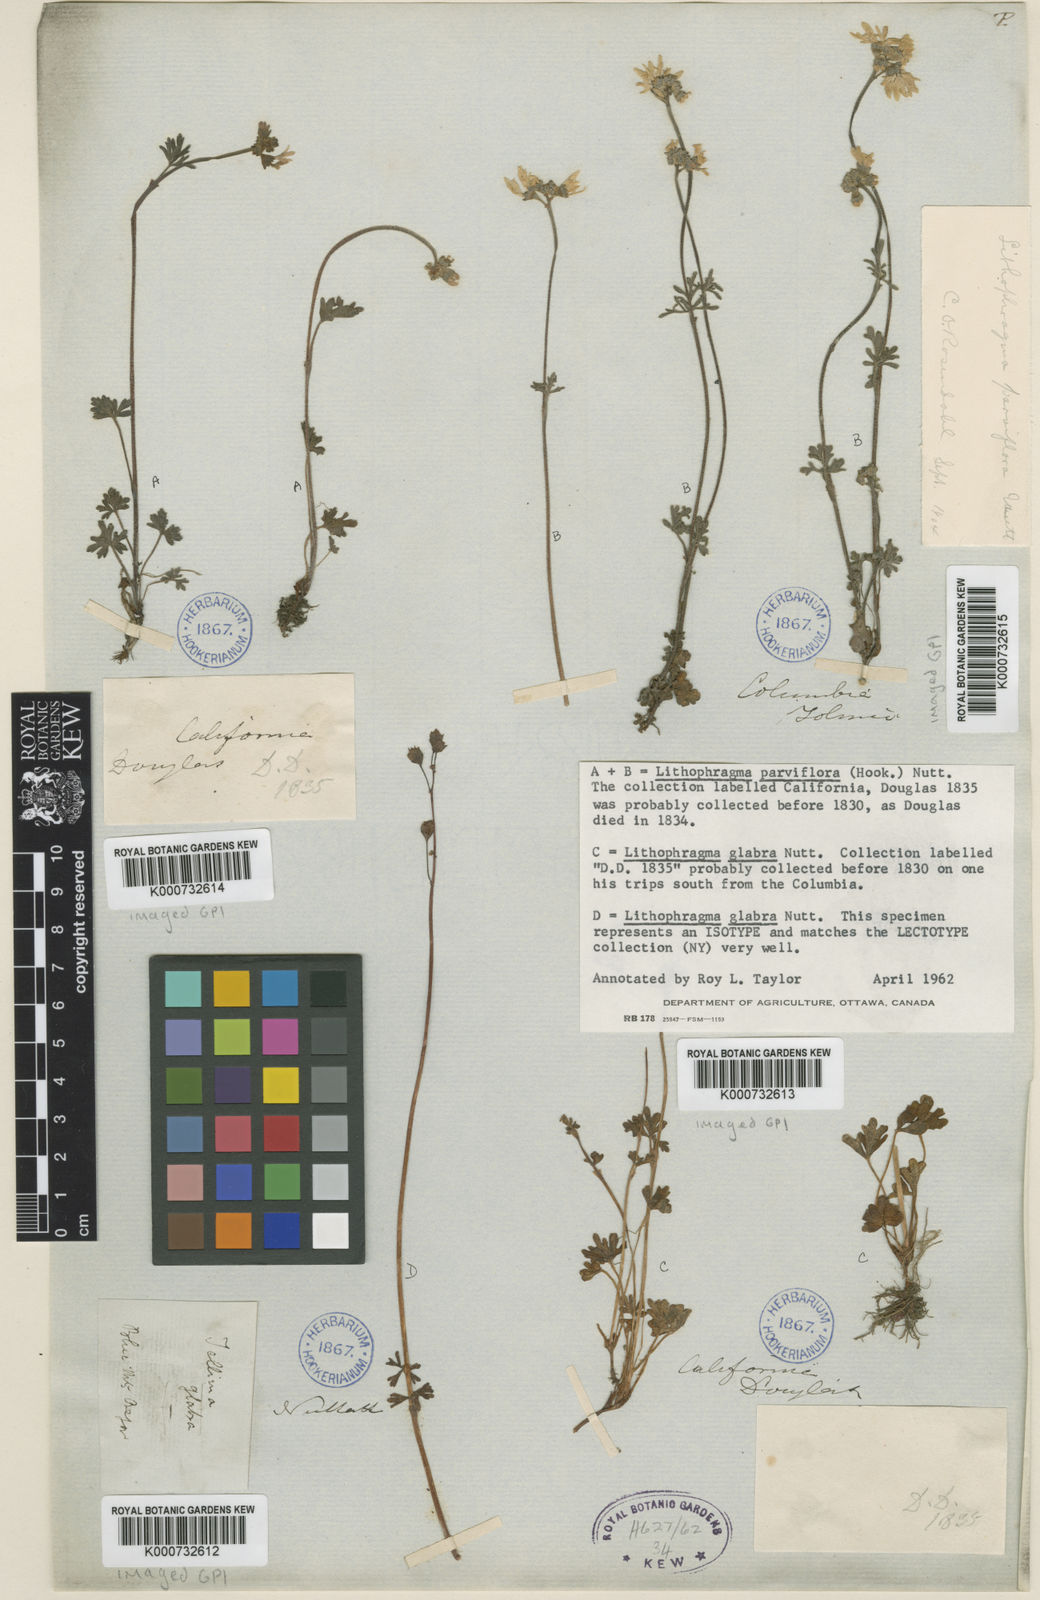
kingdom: Plantae
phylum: Tracheophyta
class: Magnoliopsida
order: Saxifragales
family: Saxifragaceae
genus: Lithophragma
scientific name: Lithophragma tenella
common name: Slender fringe-cup
